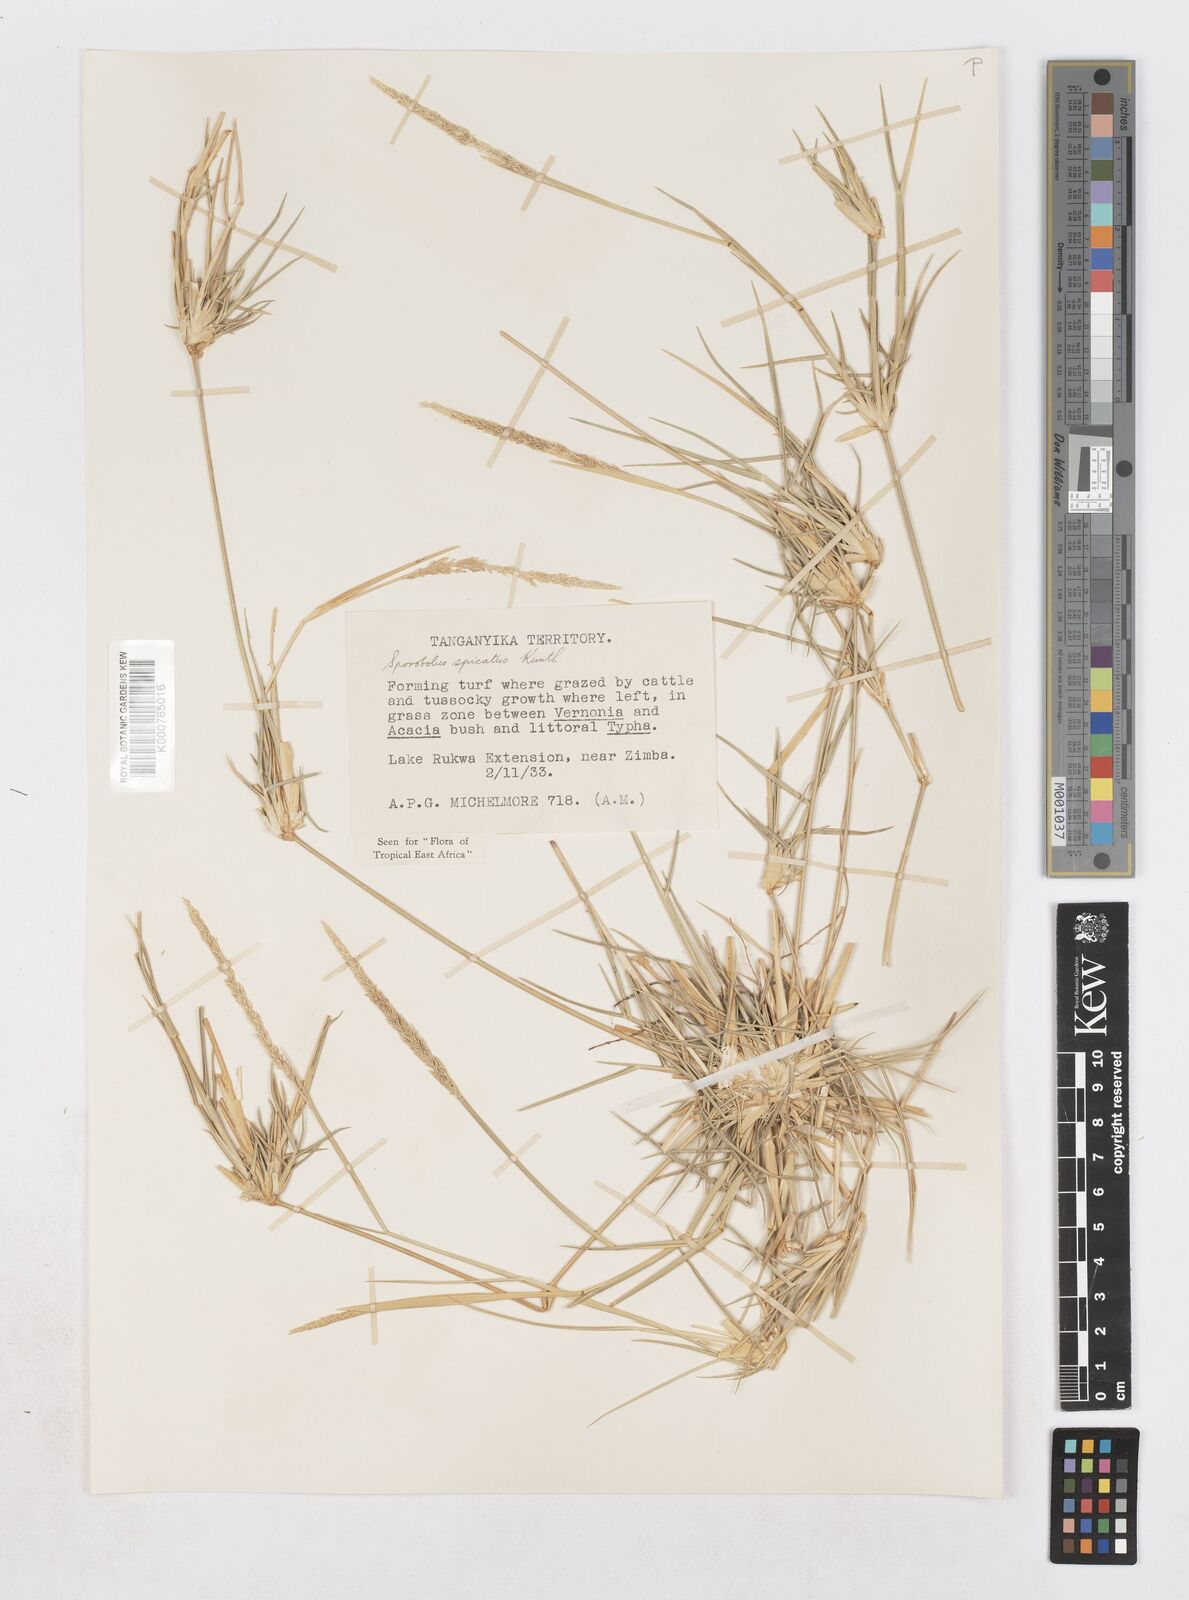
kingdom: Plantae
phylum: Tracheophyta
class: Liliopsida
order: Poales
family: Poaceae
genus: Sporobolus
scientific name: Sporobolus spicatus
